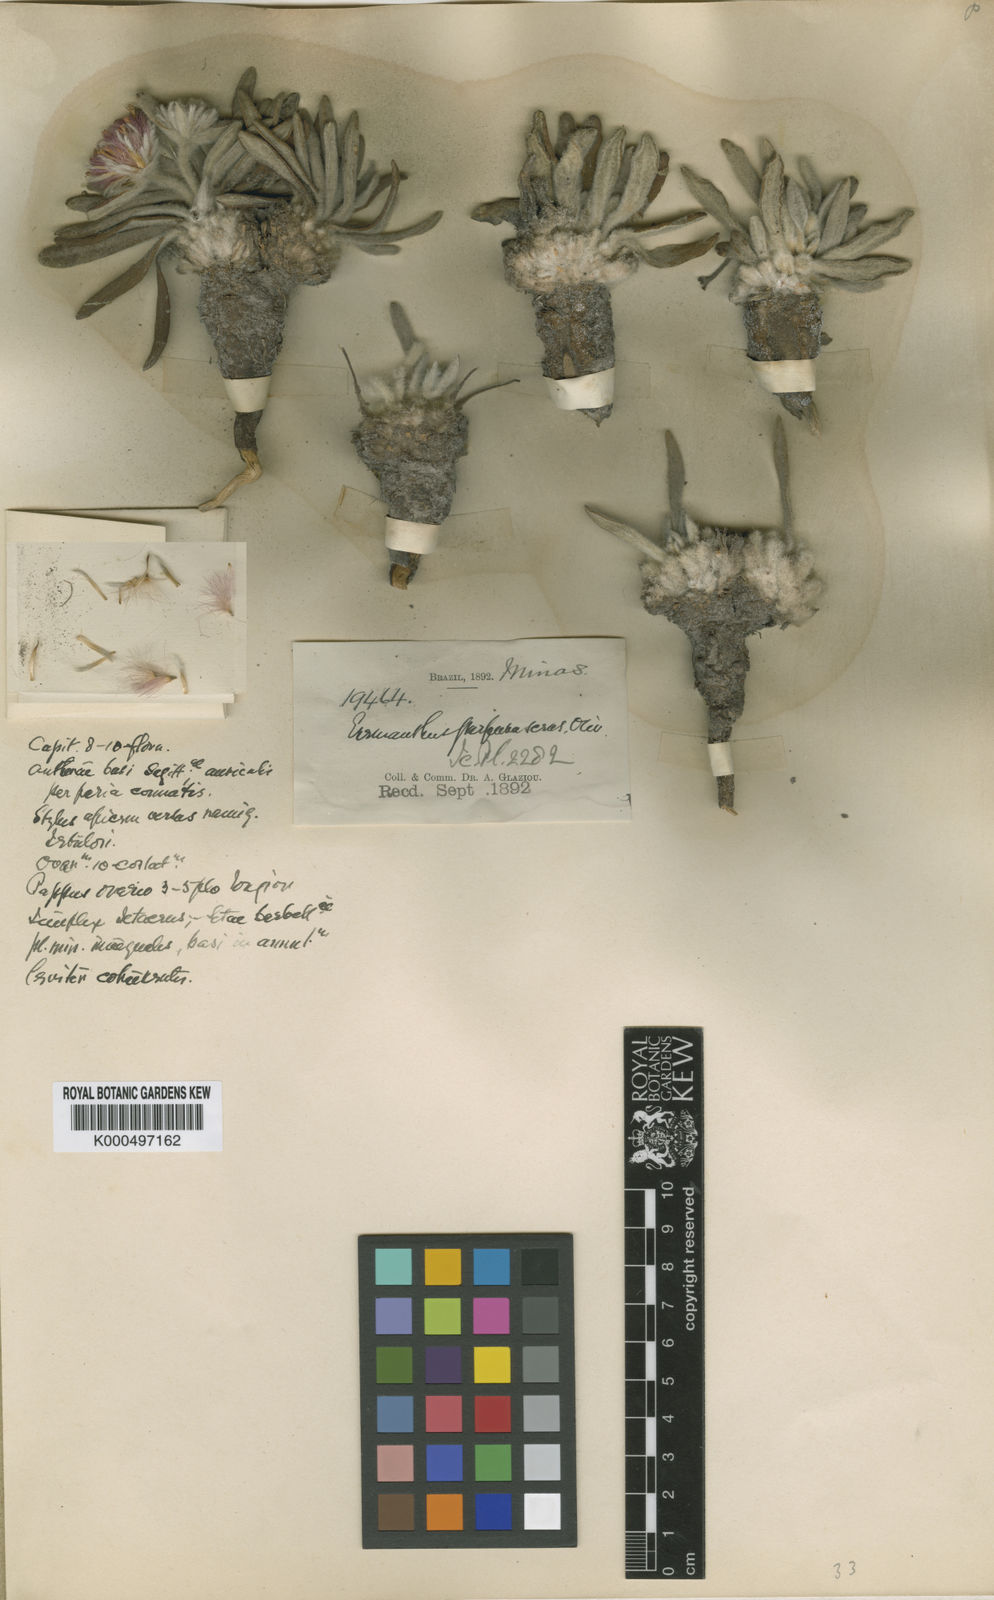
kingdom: Plantae
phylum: Tracheophyta
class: Magnoliopsida
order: Asterales
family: Asteraceae
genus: Prestelia
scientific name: Prestelia
